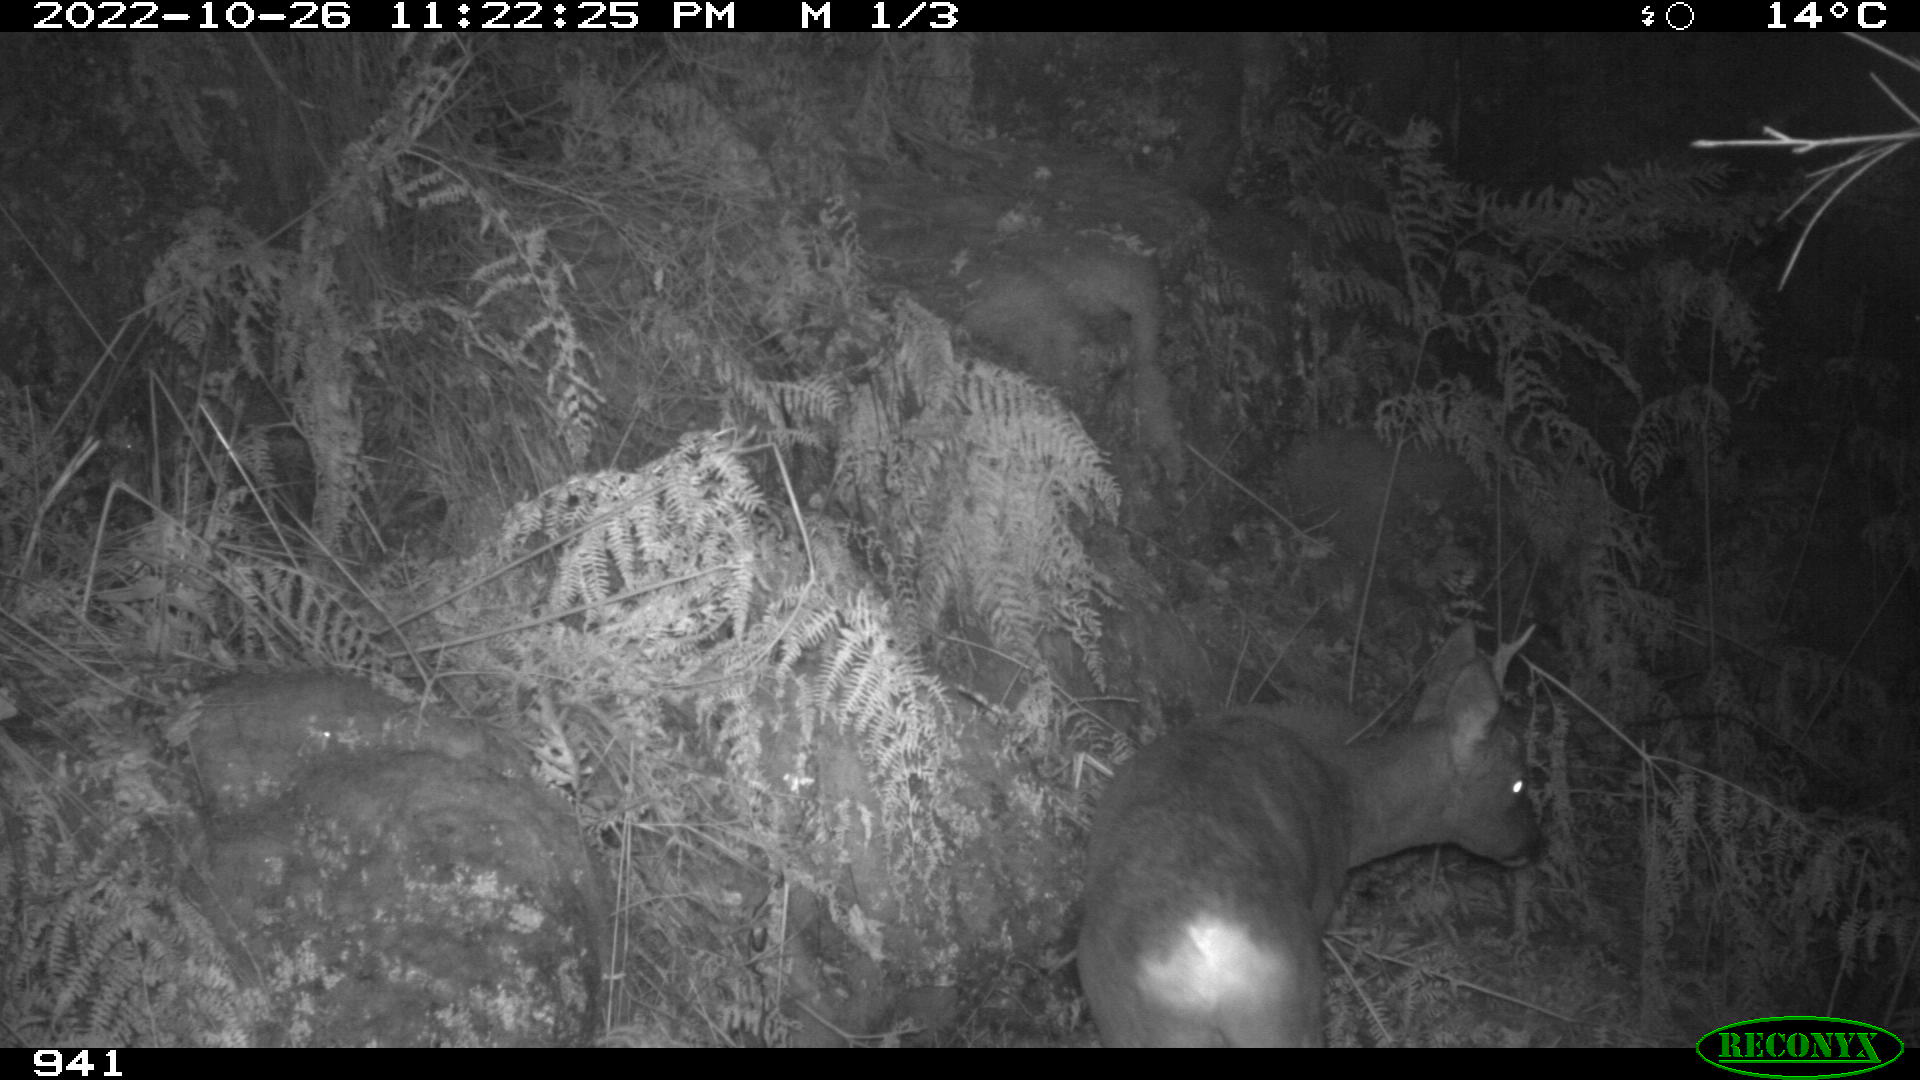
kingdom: Animalia
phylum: Chordata
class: Mammalia
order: Artiodactyla
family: Cervidae
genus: Capreolus
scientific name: Capreolus capreolus
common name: Western roe deer
